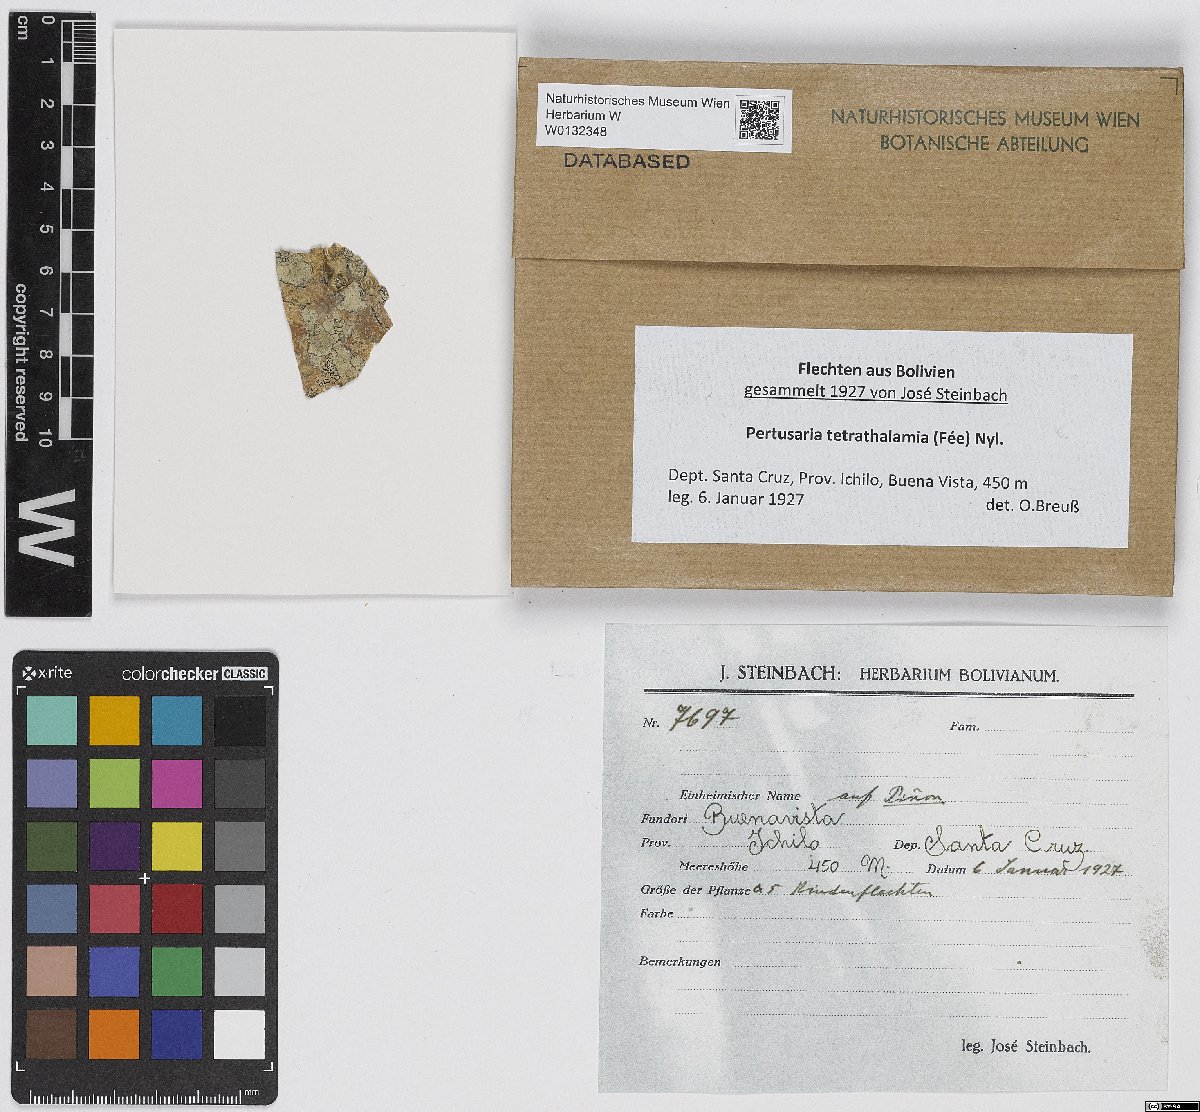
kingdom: Fungi
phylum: Ascomycota
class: Lecanoromycetes
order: Pertusariales
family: Pertusariaceae
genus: Pertusaria
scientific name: Pertusaria tetrathalamia
